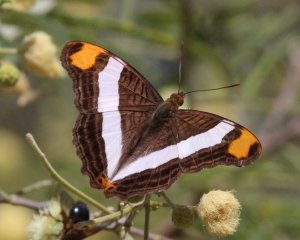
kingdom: Animalia
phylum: Arthropoda
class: Insecta
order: Lepidoptera
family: Nymphalidae
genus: Limenitis
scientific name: Limenitis fessonia
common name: Band-celled Sister
